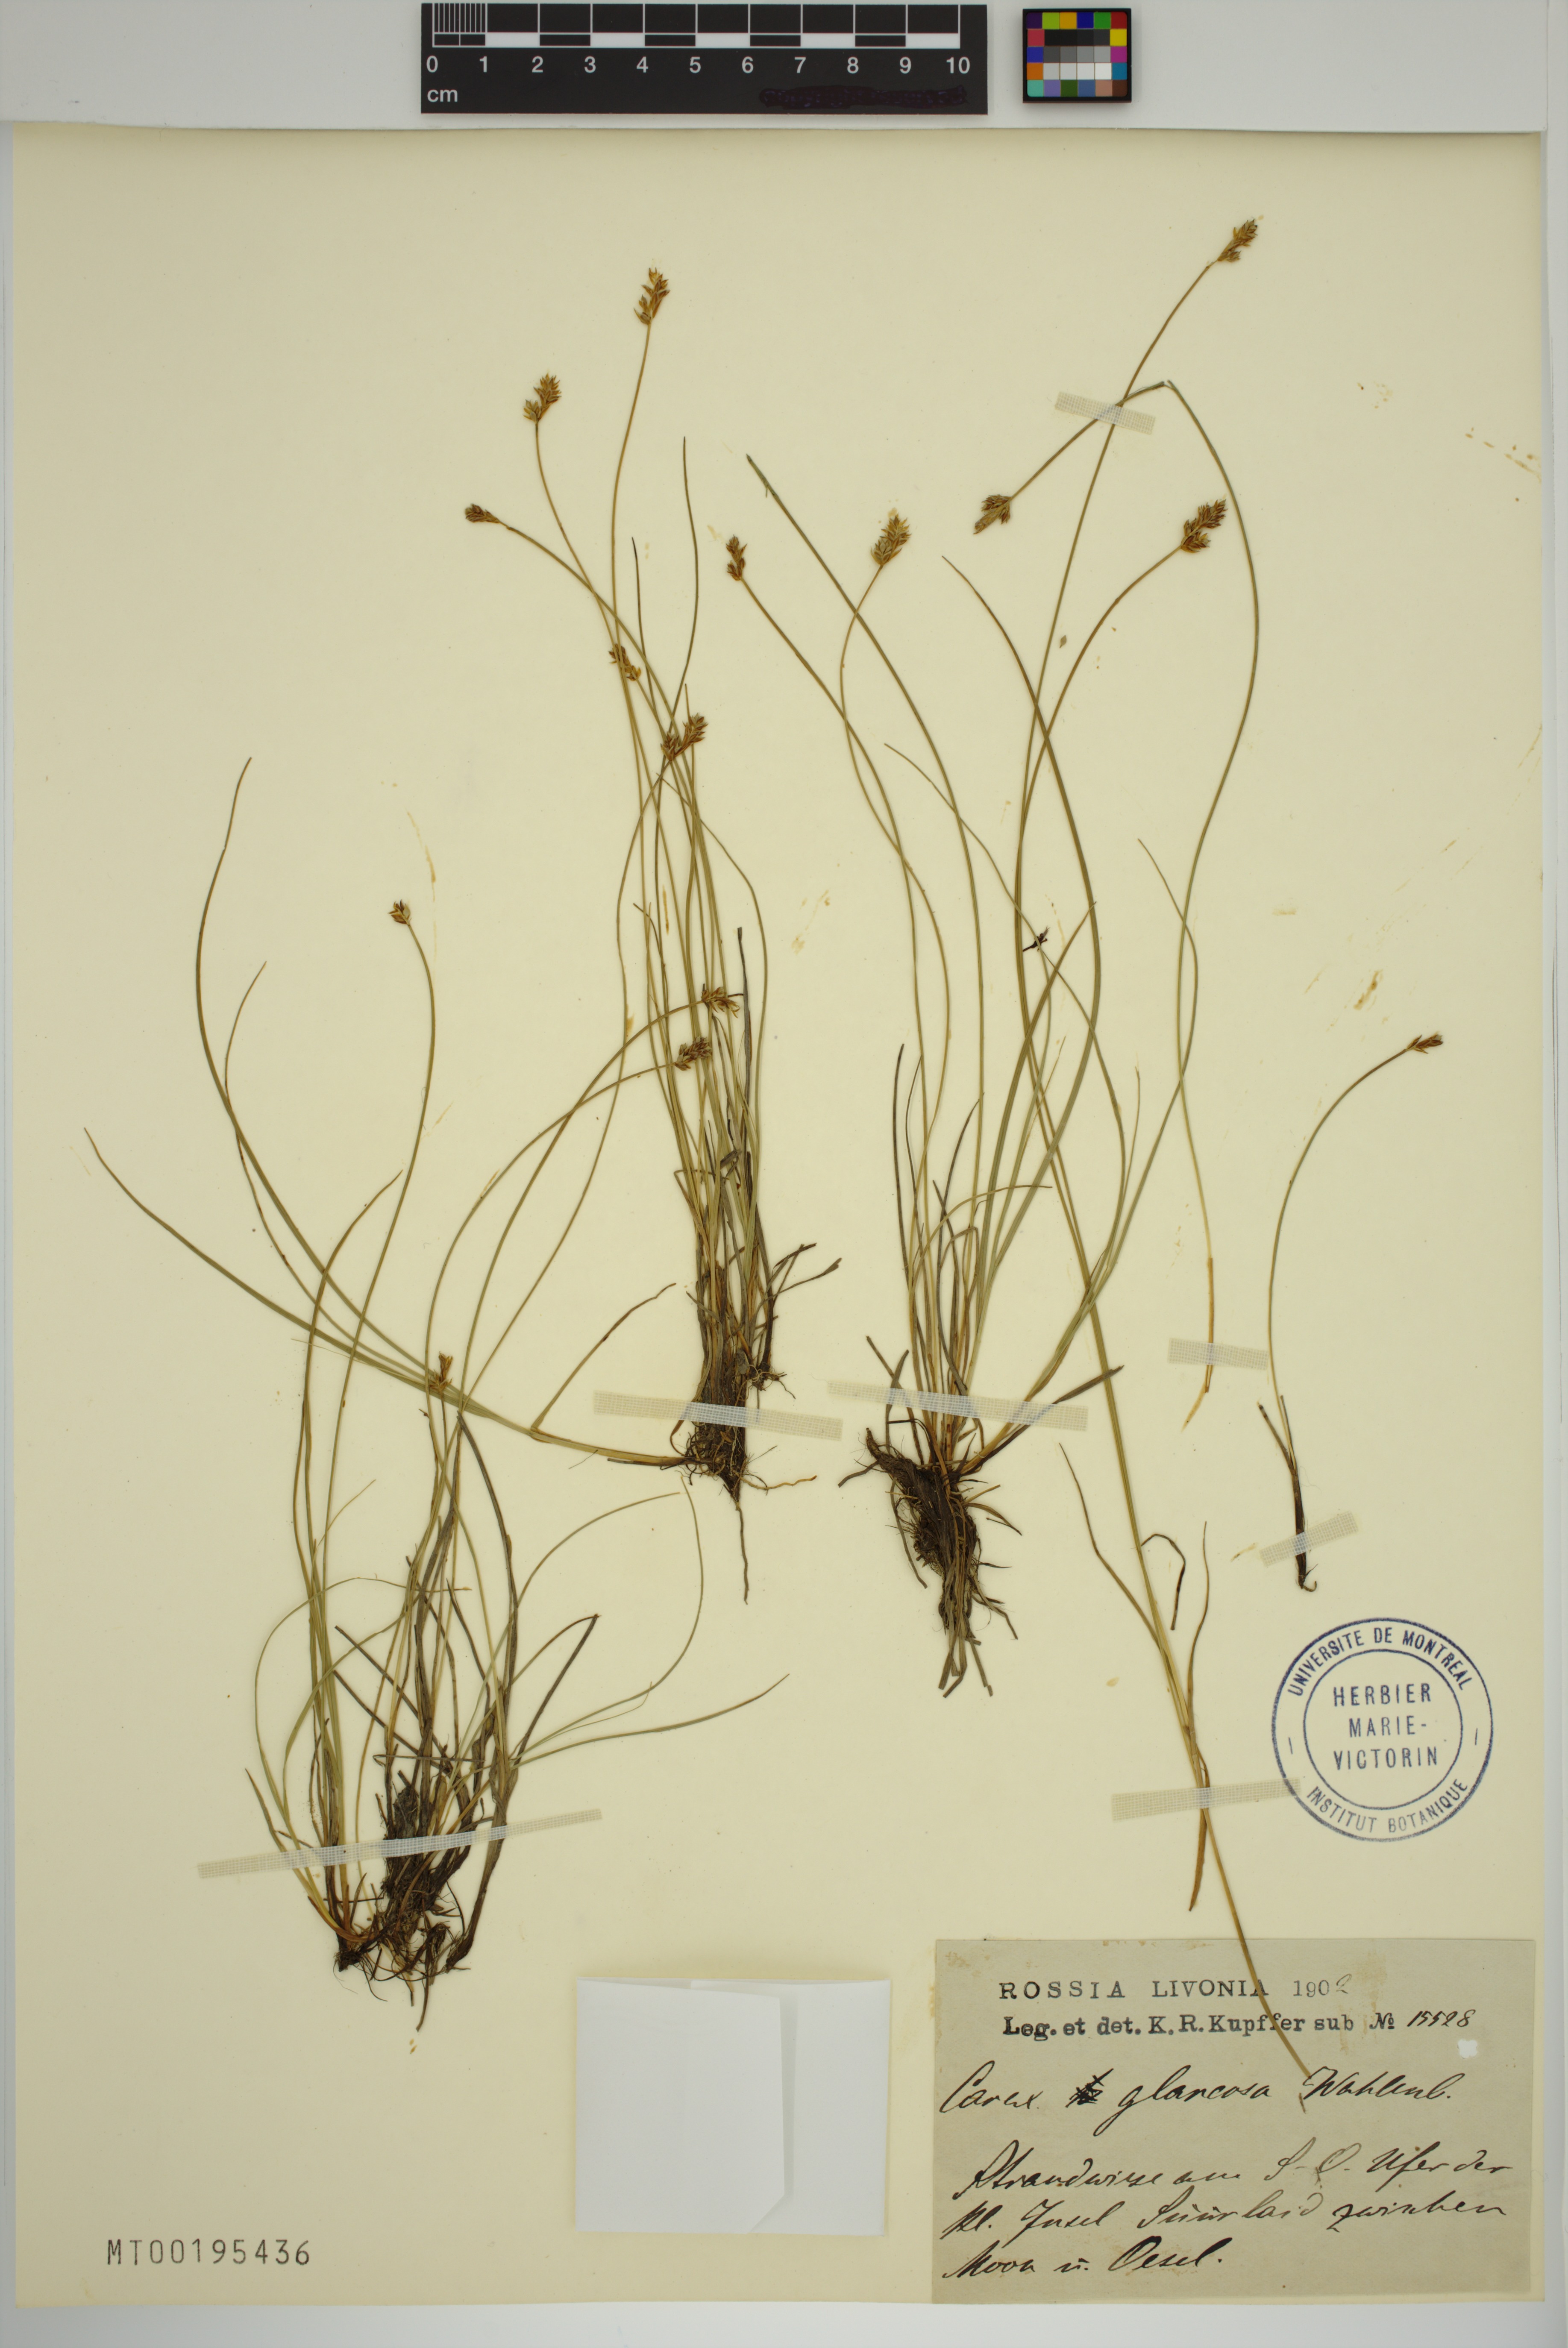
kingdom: Plantae
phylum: Tracheophyta
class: Liliopsida
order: Poales
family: Cyperaceae
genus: Carex
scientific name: Carex glareosa
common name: Clustered sedge
